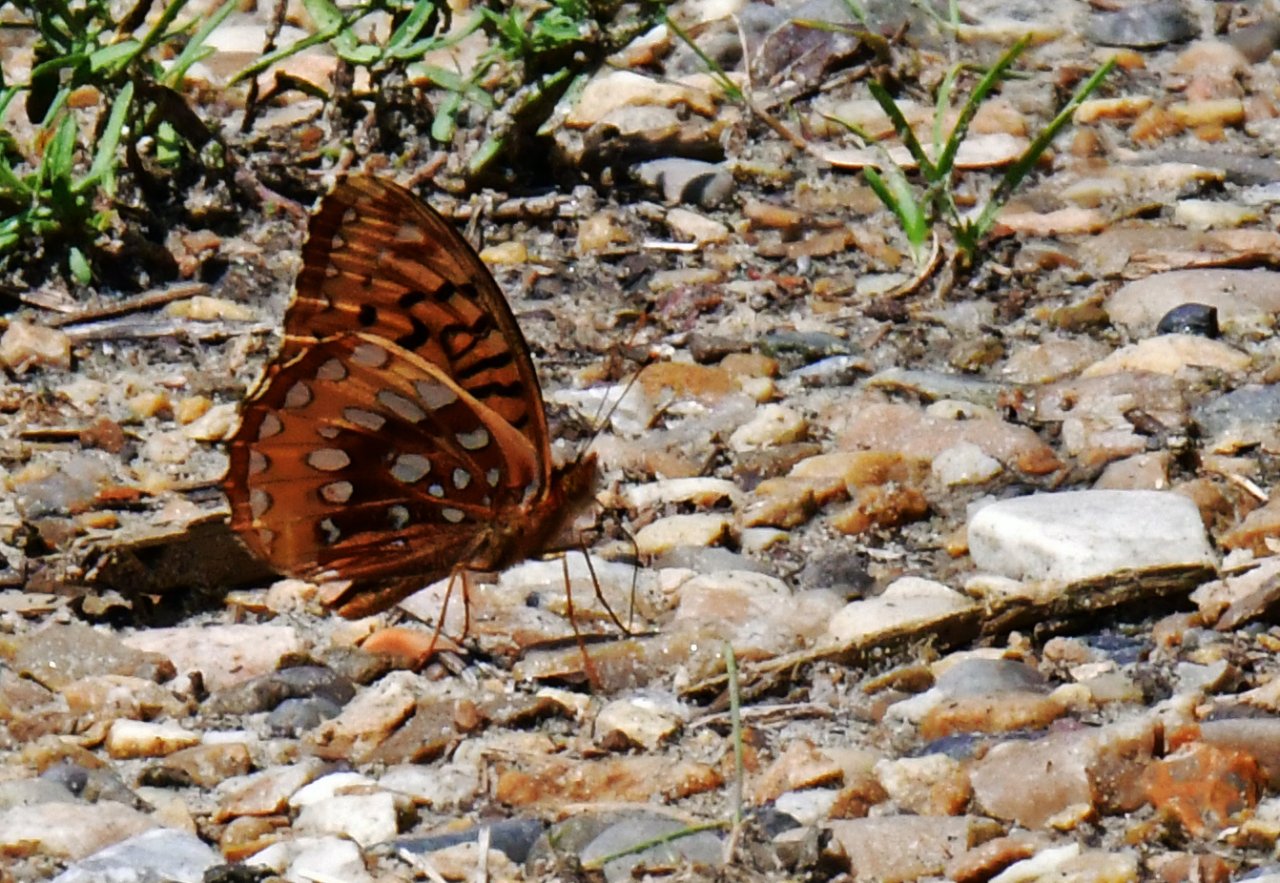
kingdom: Animalia
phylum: Arthropoda
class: Insecta
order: Lepidoptera
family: Nymphalidae
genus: Speyeria
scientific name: Speyeria cybele
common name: Great Spangled Fritillary
